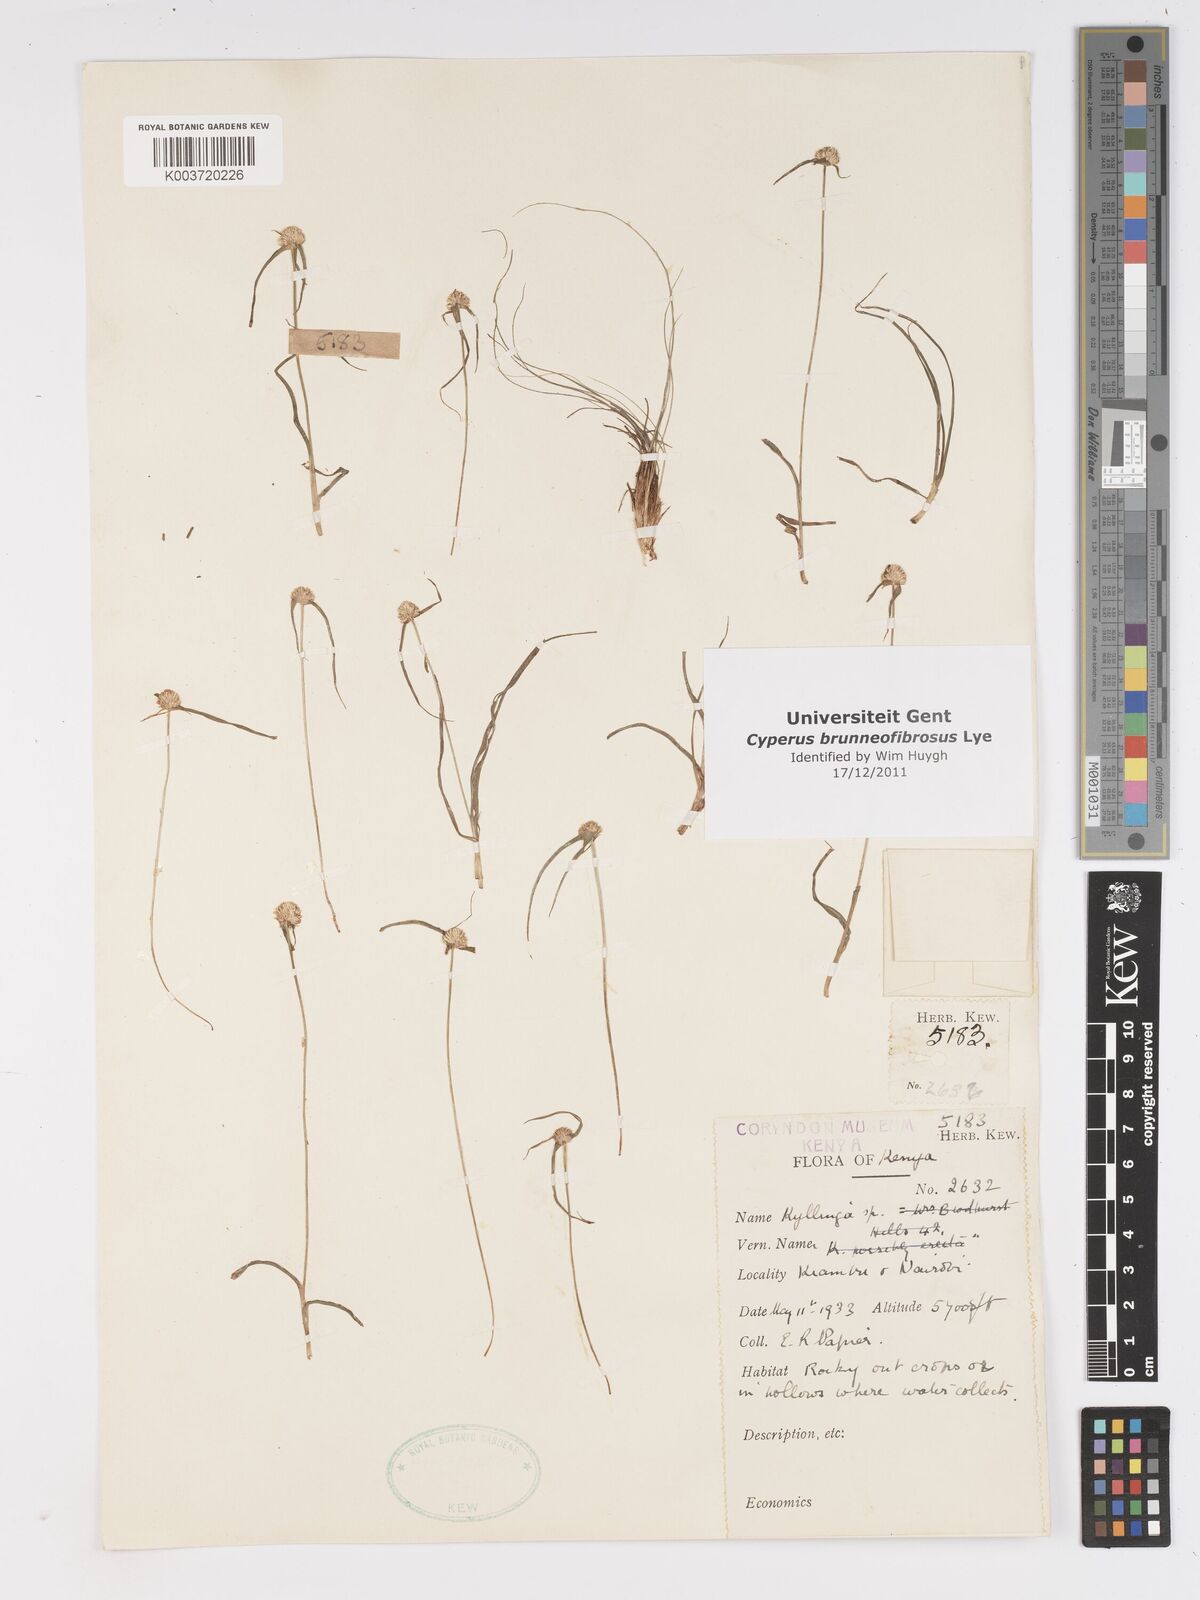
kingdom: Plantae
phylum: Tracheophyta
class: Liliopsida
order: Poales
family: Cyperaceae
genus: Cyperus
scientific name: Cyperus brunneofibrosus
